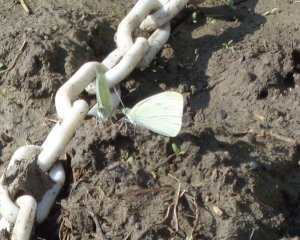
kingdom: Animalia
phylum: Arthropoda
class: Insecta
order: Lepidoptera
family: Pieridae
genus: Pieris
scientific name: Pieris rapae
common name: Cabbage White
